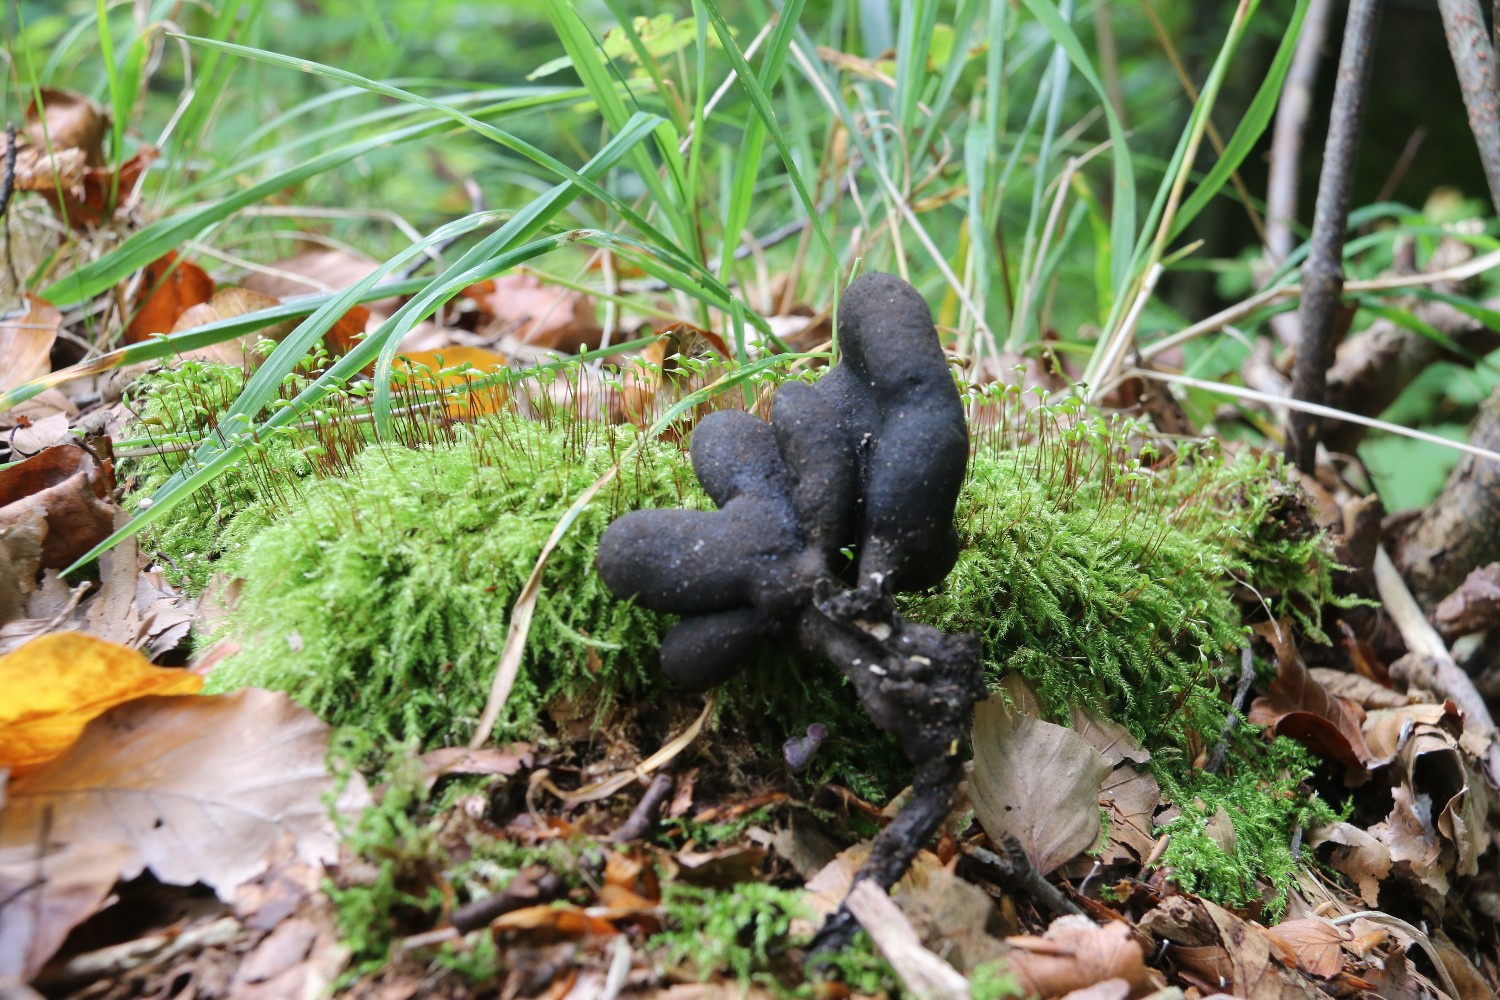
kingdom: Fungi
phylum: Ascomycota
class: Sordariomycetes
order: Xylariales
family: Xylariaceae
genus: Xylaria
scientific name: Xylaria polymorpha
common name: kølle-stødsvamp
